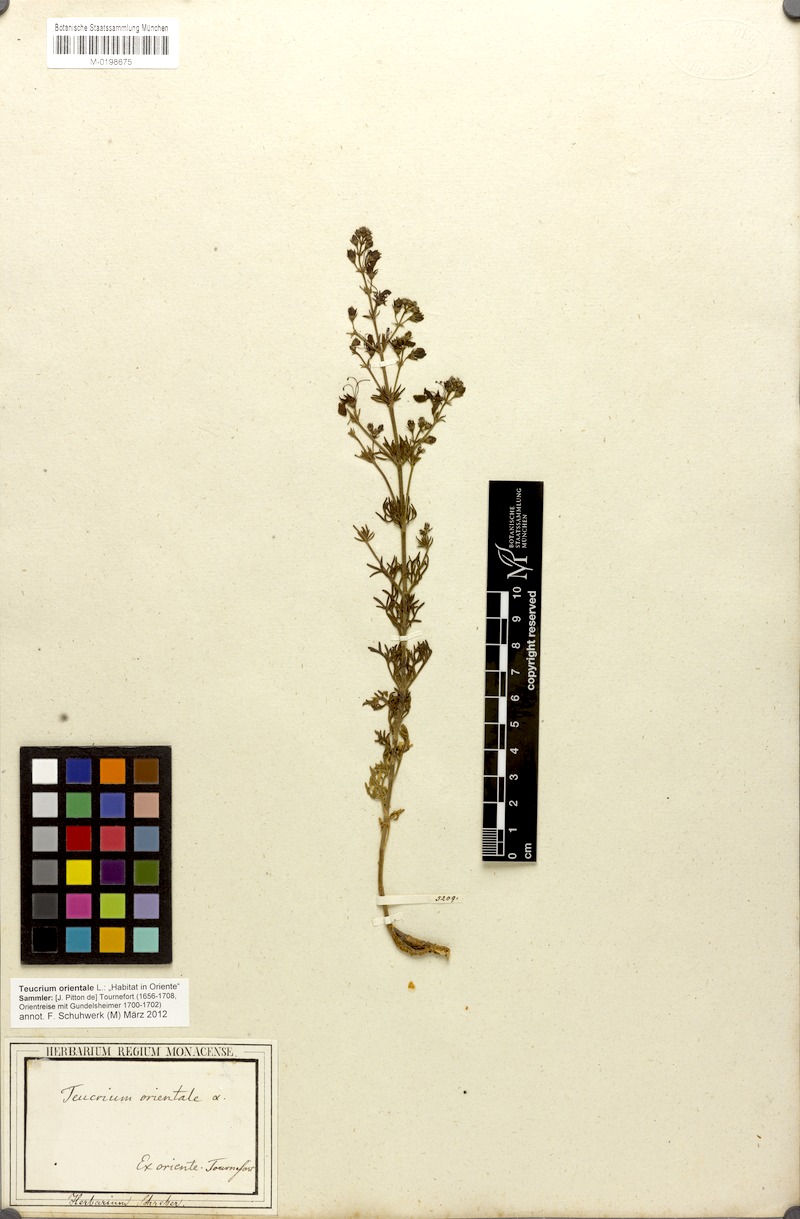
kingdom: Plantae
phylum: Tracheophyta
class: Magnoliopsida
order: Lamiales
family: Lamiaceae
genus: Teucrium
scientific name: Teucrium orientale
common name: Oriental germander
